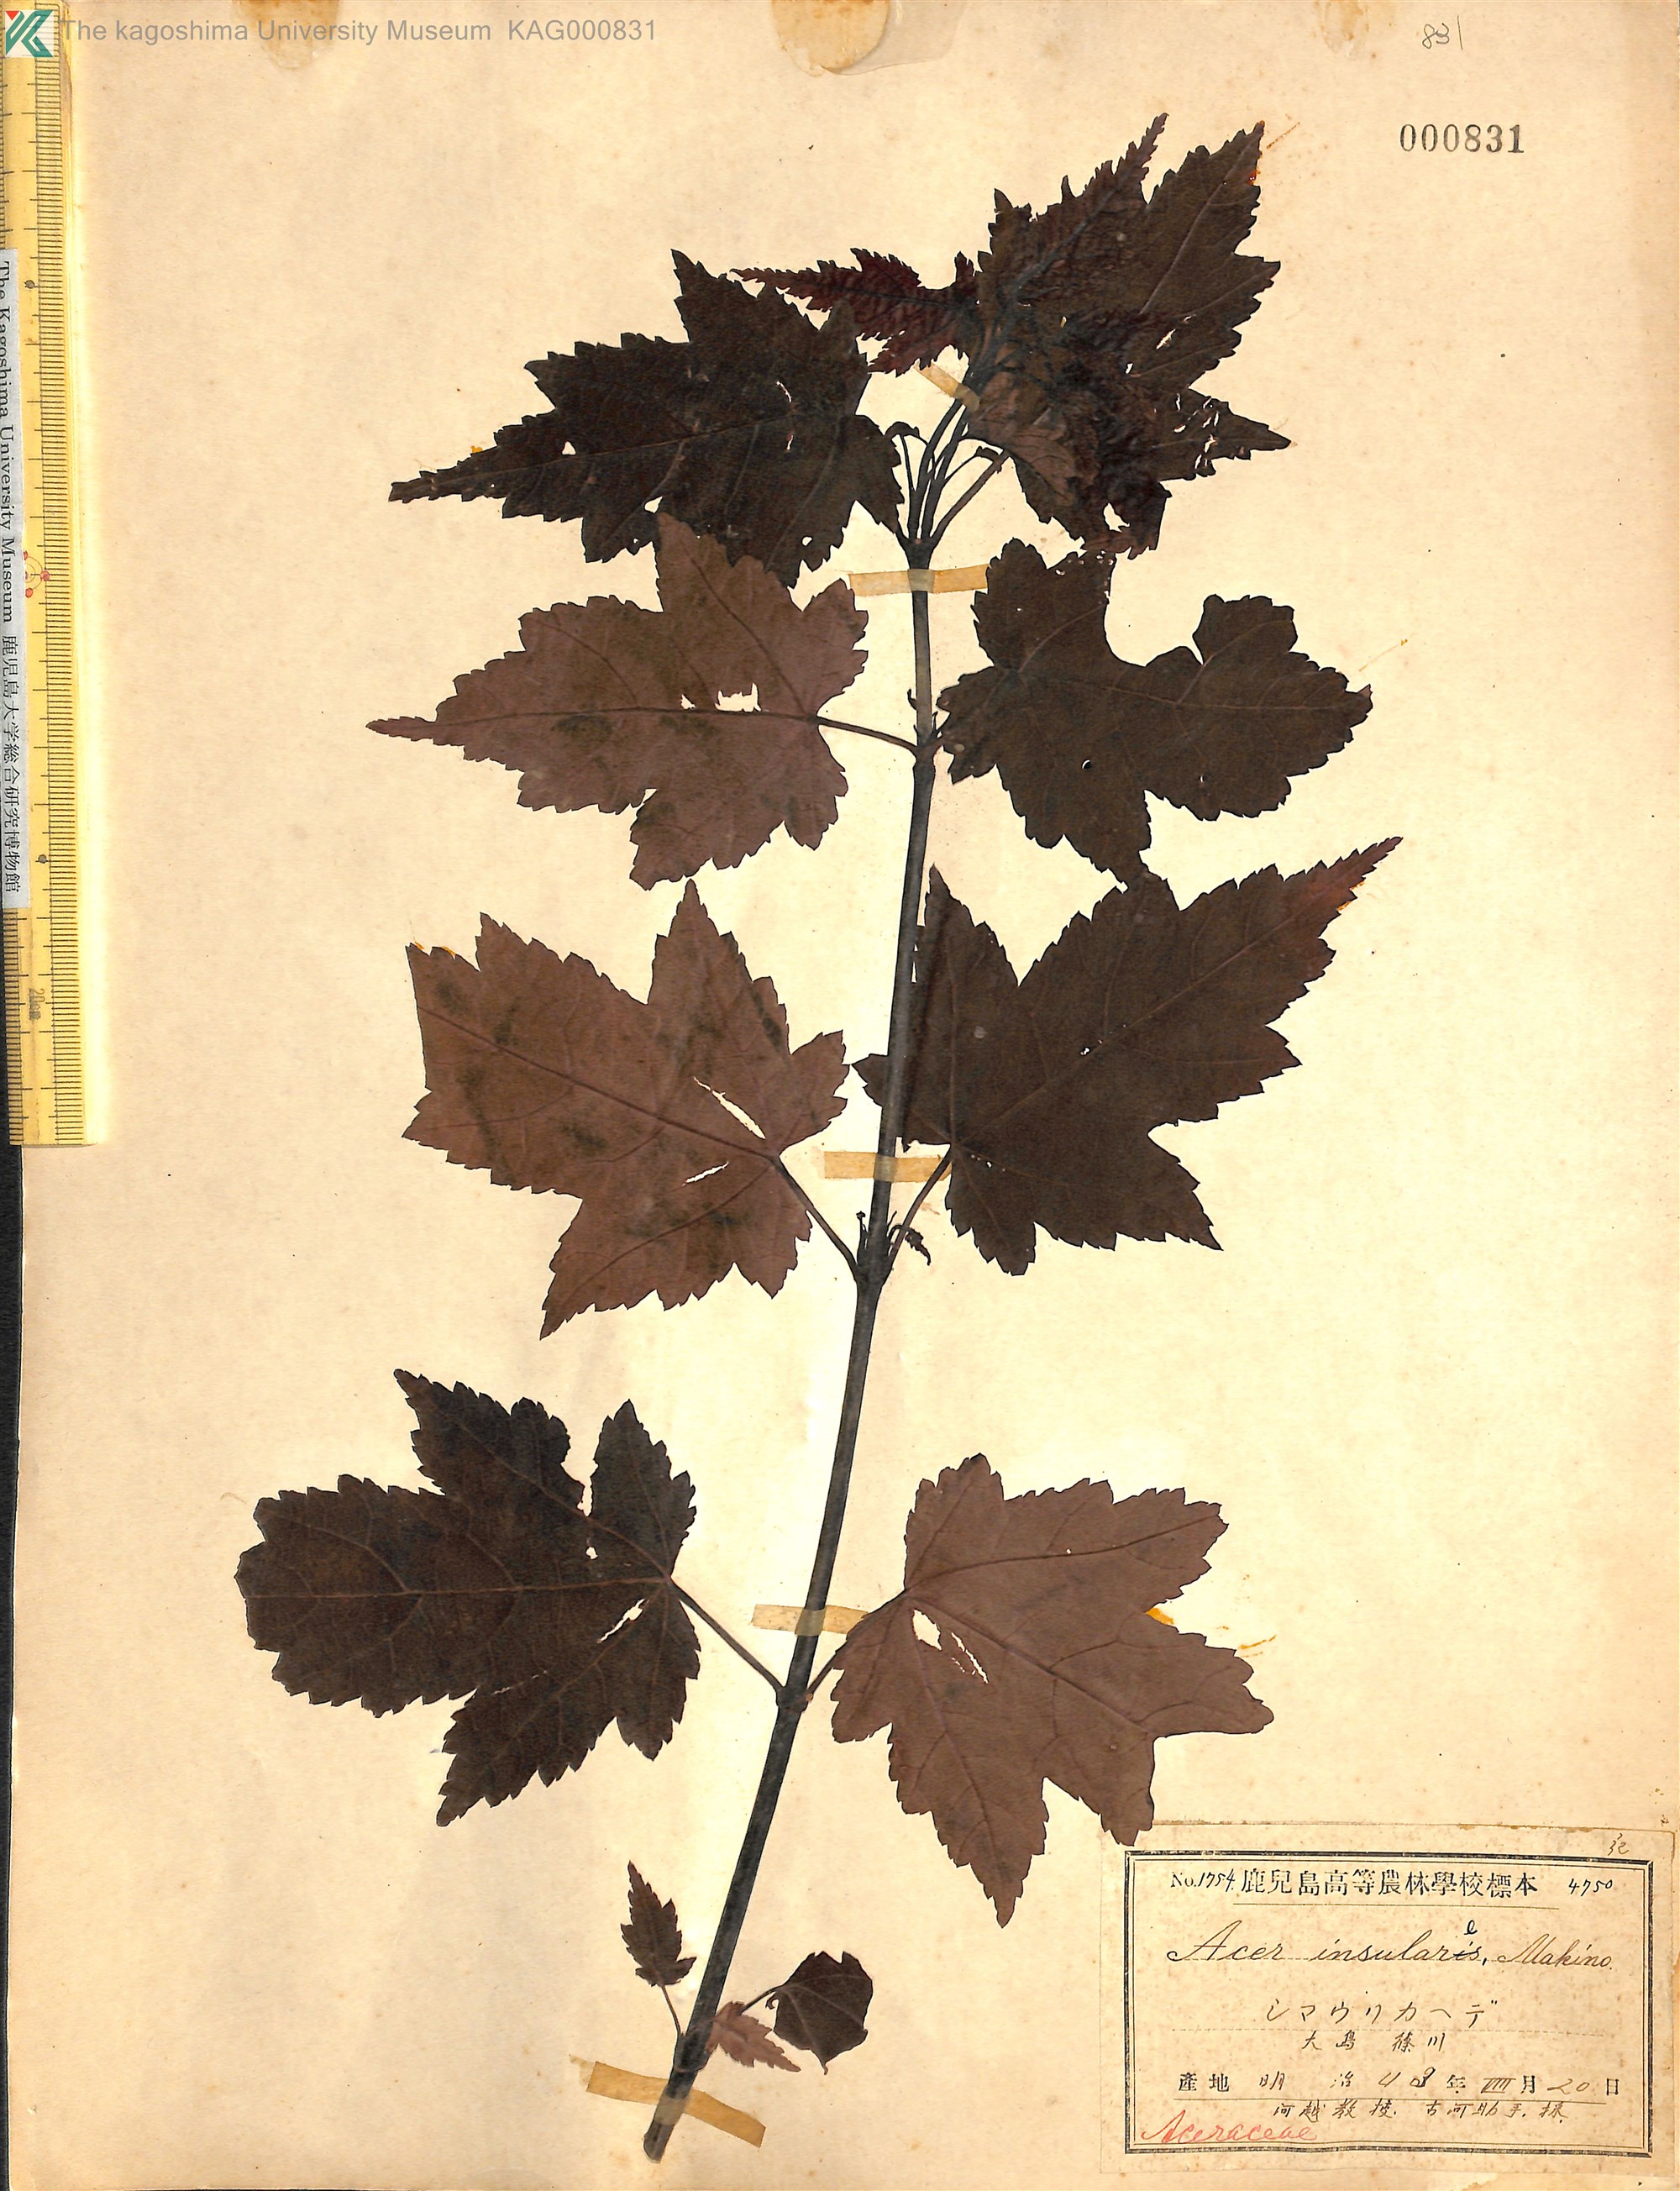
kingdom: Plantae
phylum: Tracheophyta
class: Magnoliopsida
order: Sapindales
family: Sapindaceae
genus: Acer
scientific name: Acer caudatifolium
